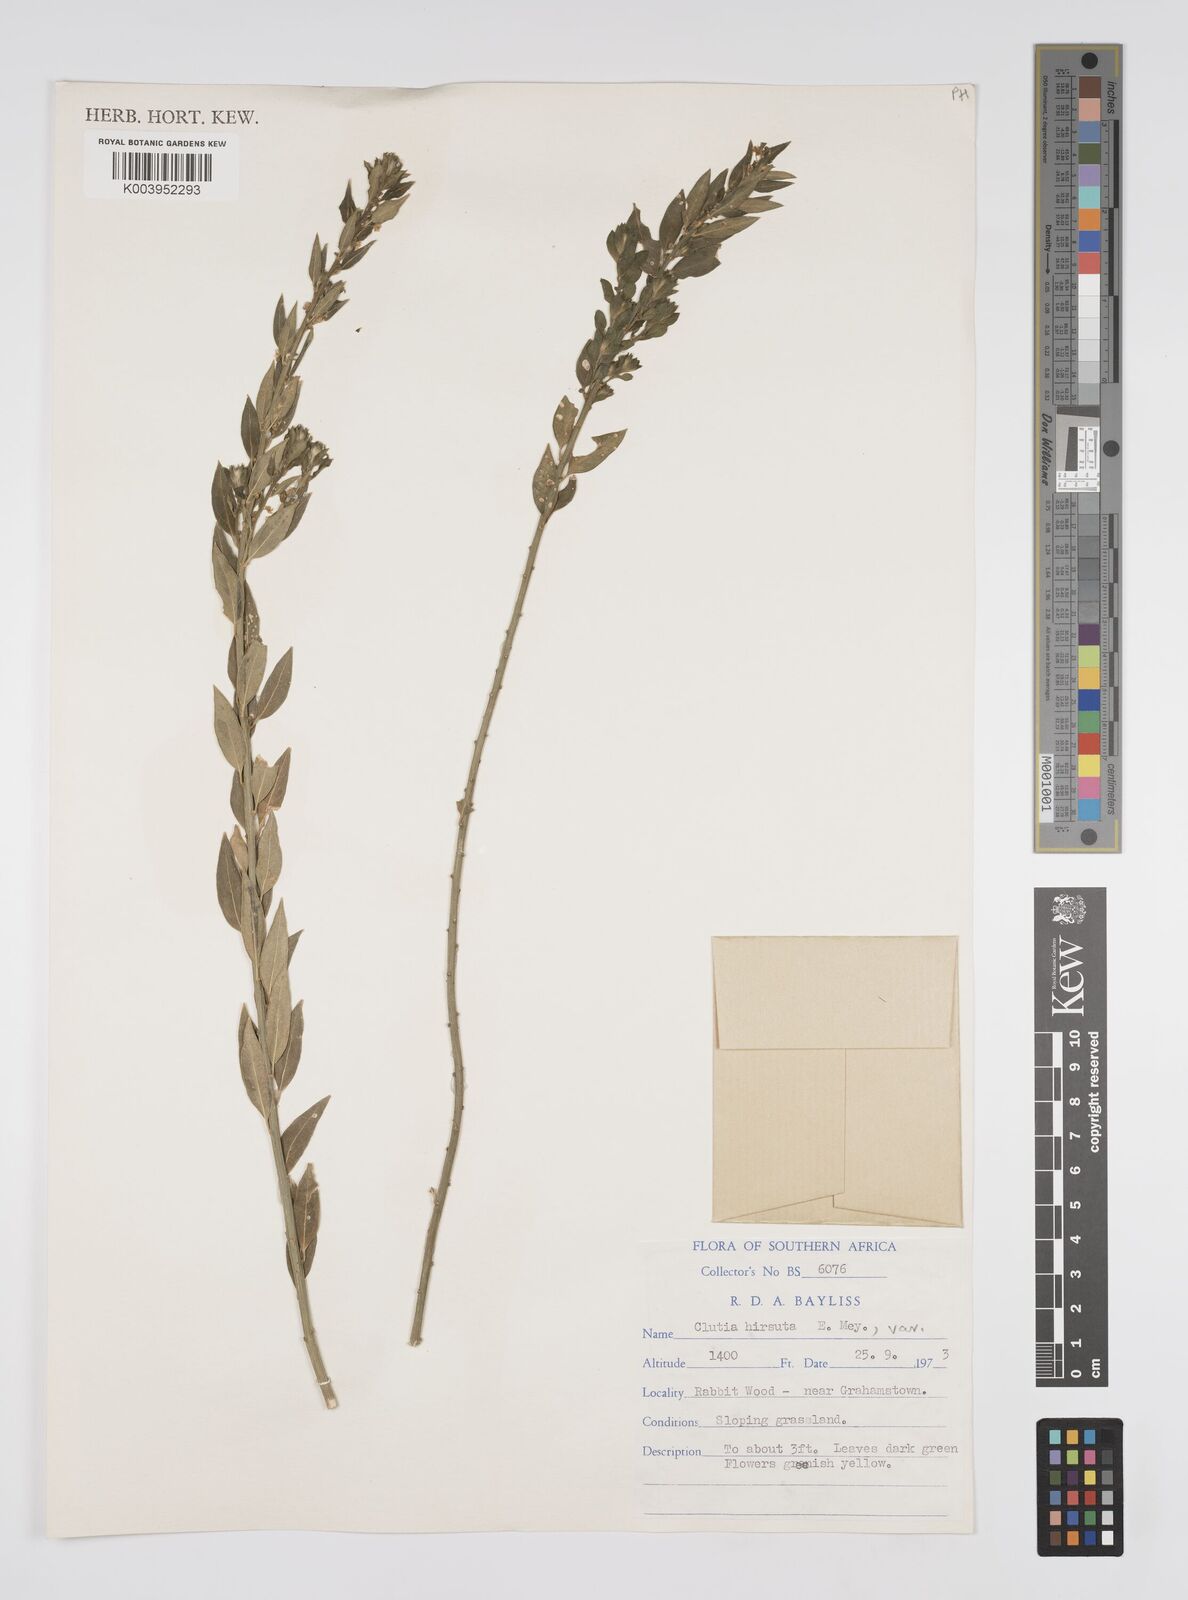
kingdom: Plantae
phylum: Tracheophyta
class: Magnoliopsida
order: Malpighiales
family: Peraceae
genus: Clutia
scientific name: Clutia affinis
